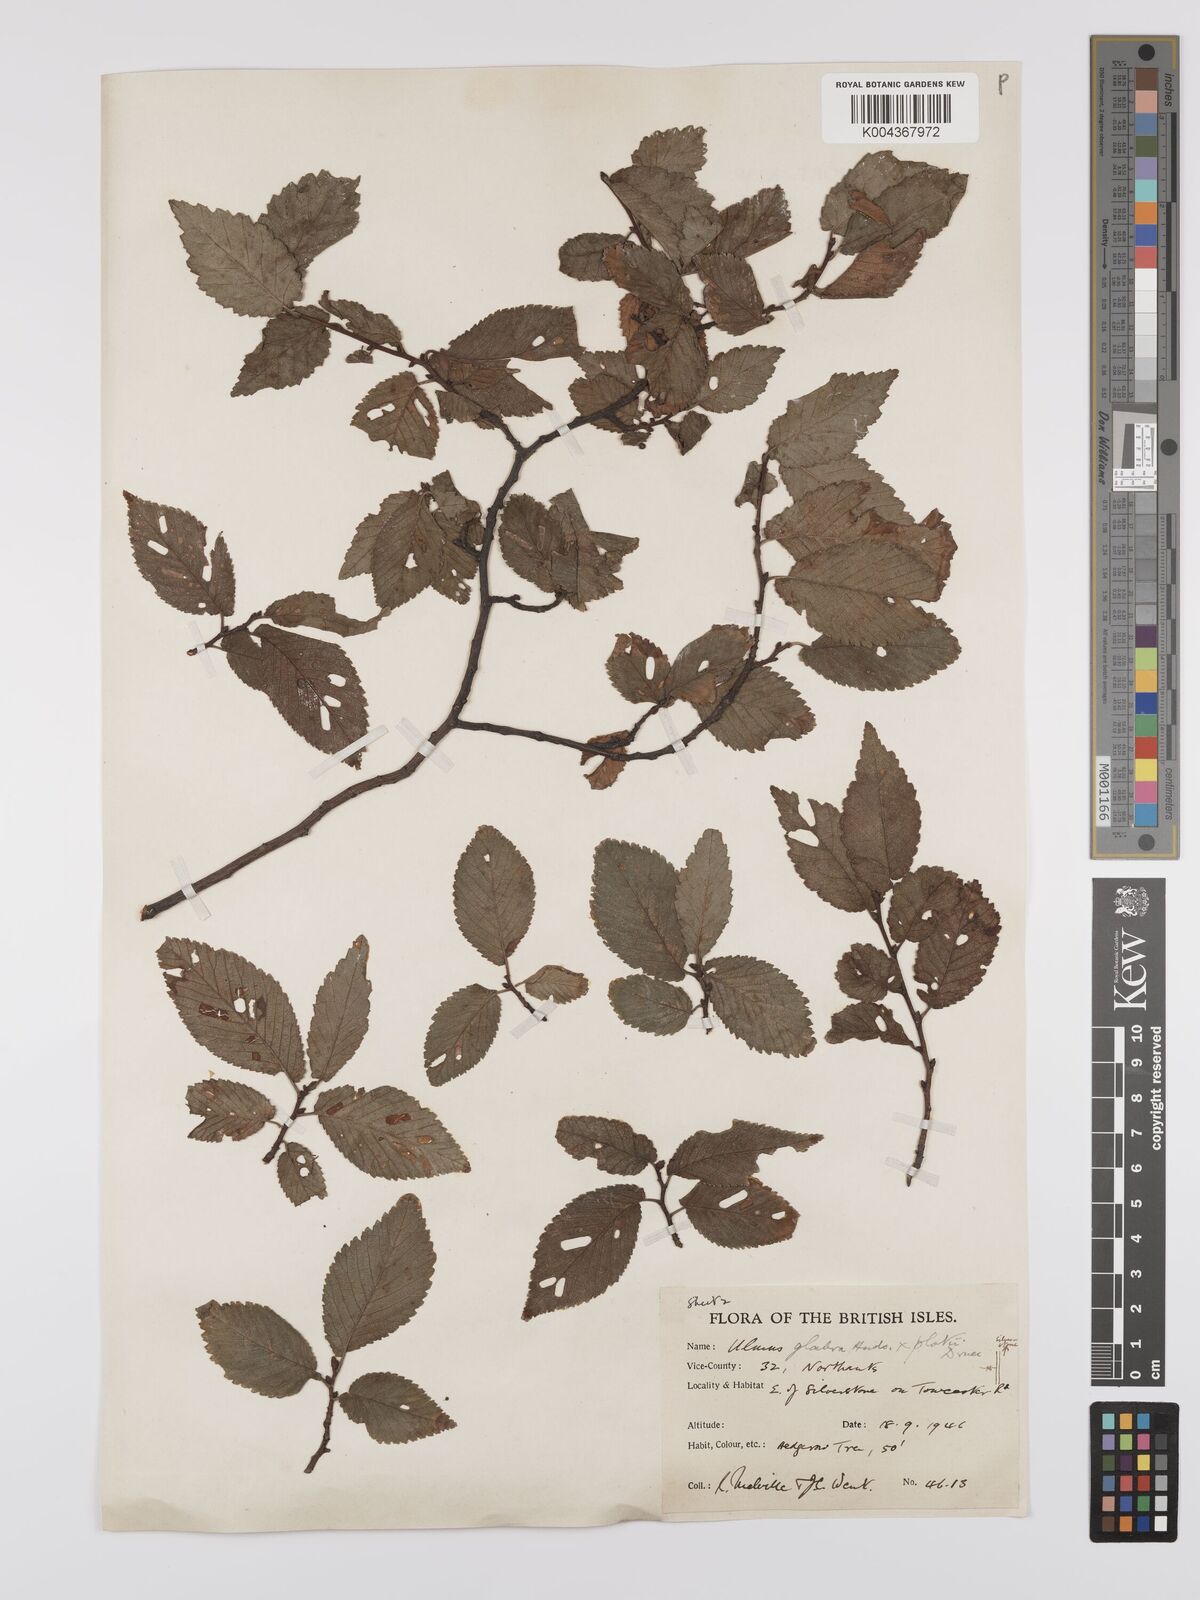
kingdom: Plantae
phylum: Tracheophyta
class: Magnoliopsida
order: Rosales
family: Ulmaceae
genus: Ulmus
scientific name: Ulmus minor
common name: Small-leaved elm
